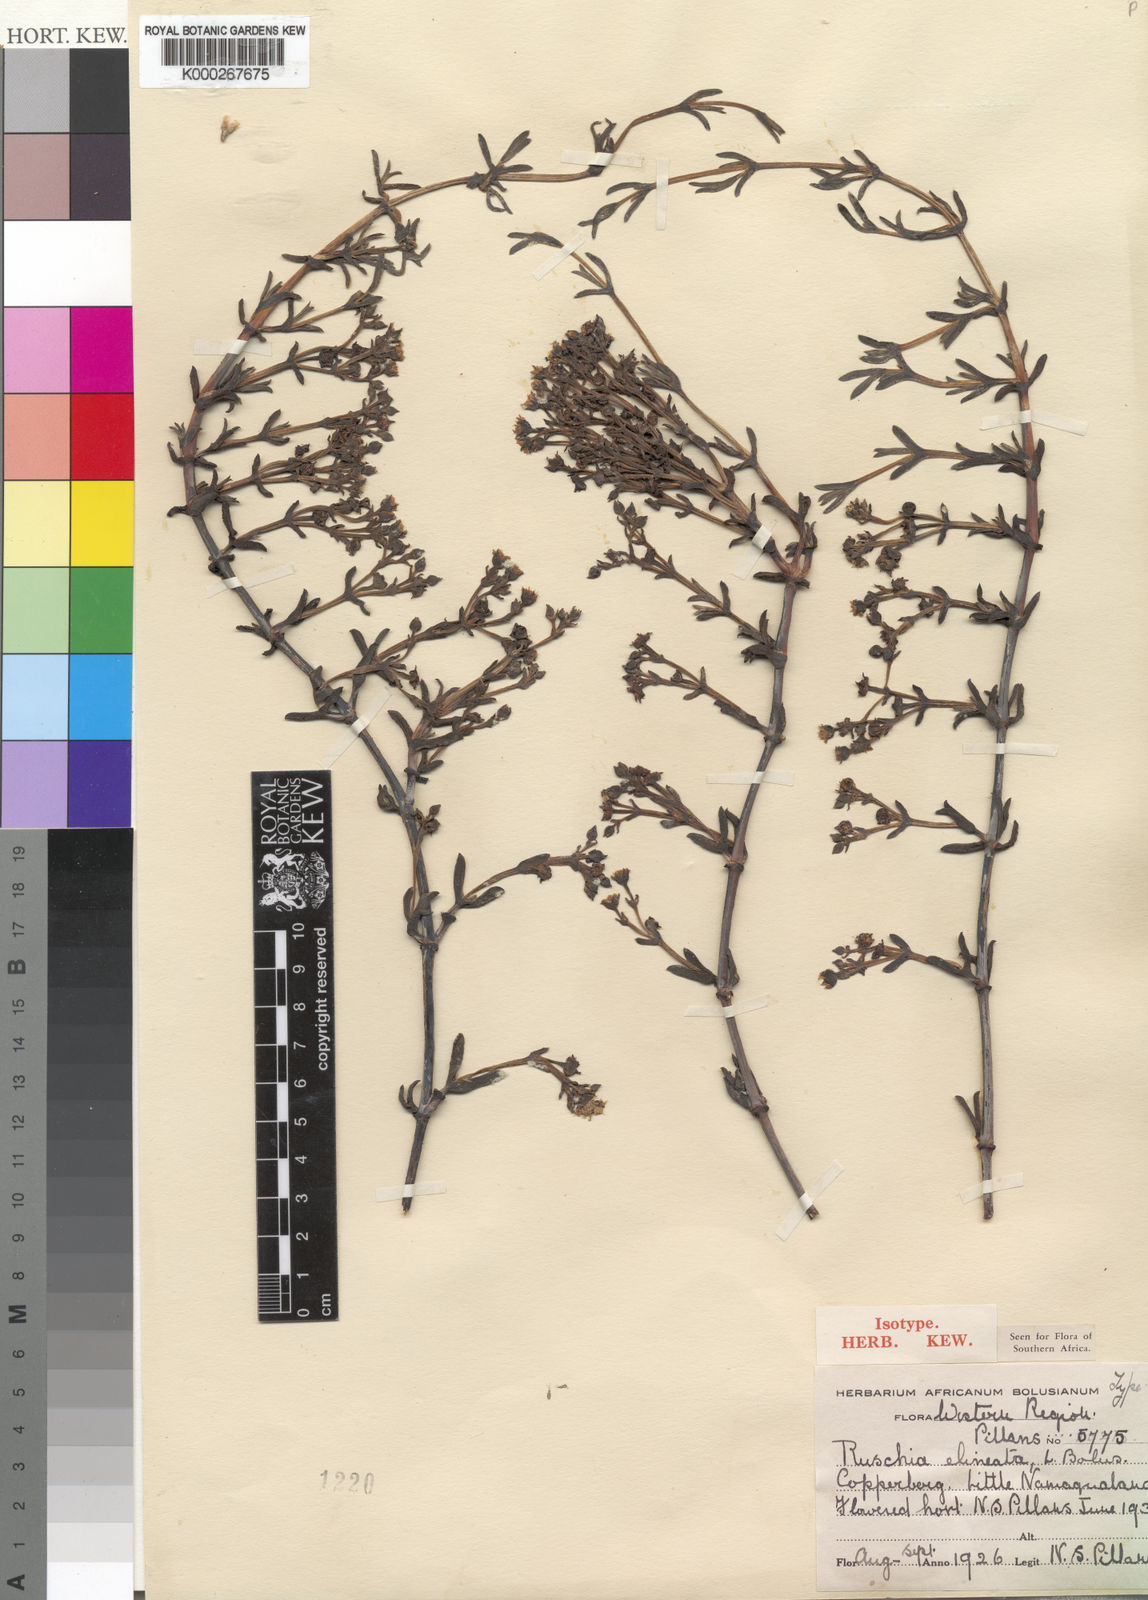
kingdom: Plantae
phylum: Tracheophyta
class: Magnoliopsida
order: Caryophyllales
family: Aizoaceae
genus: Ruschia
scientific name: Ruschia elineata
